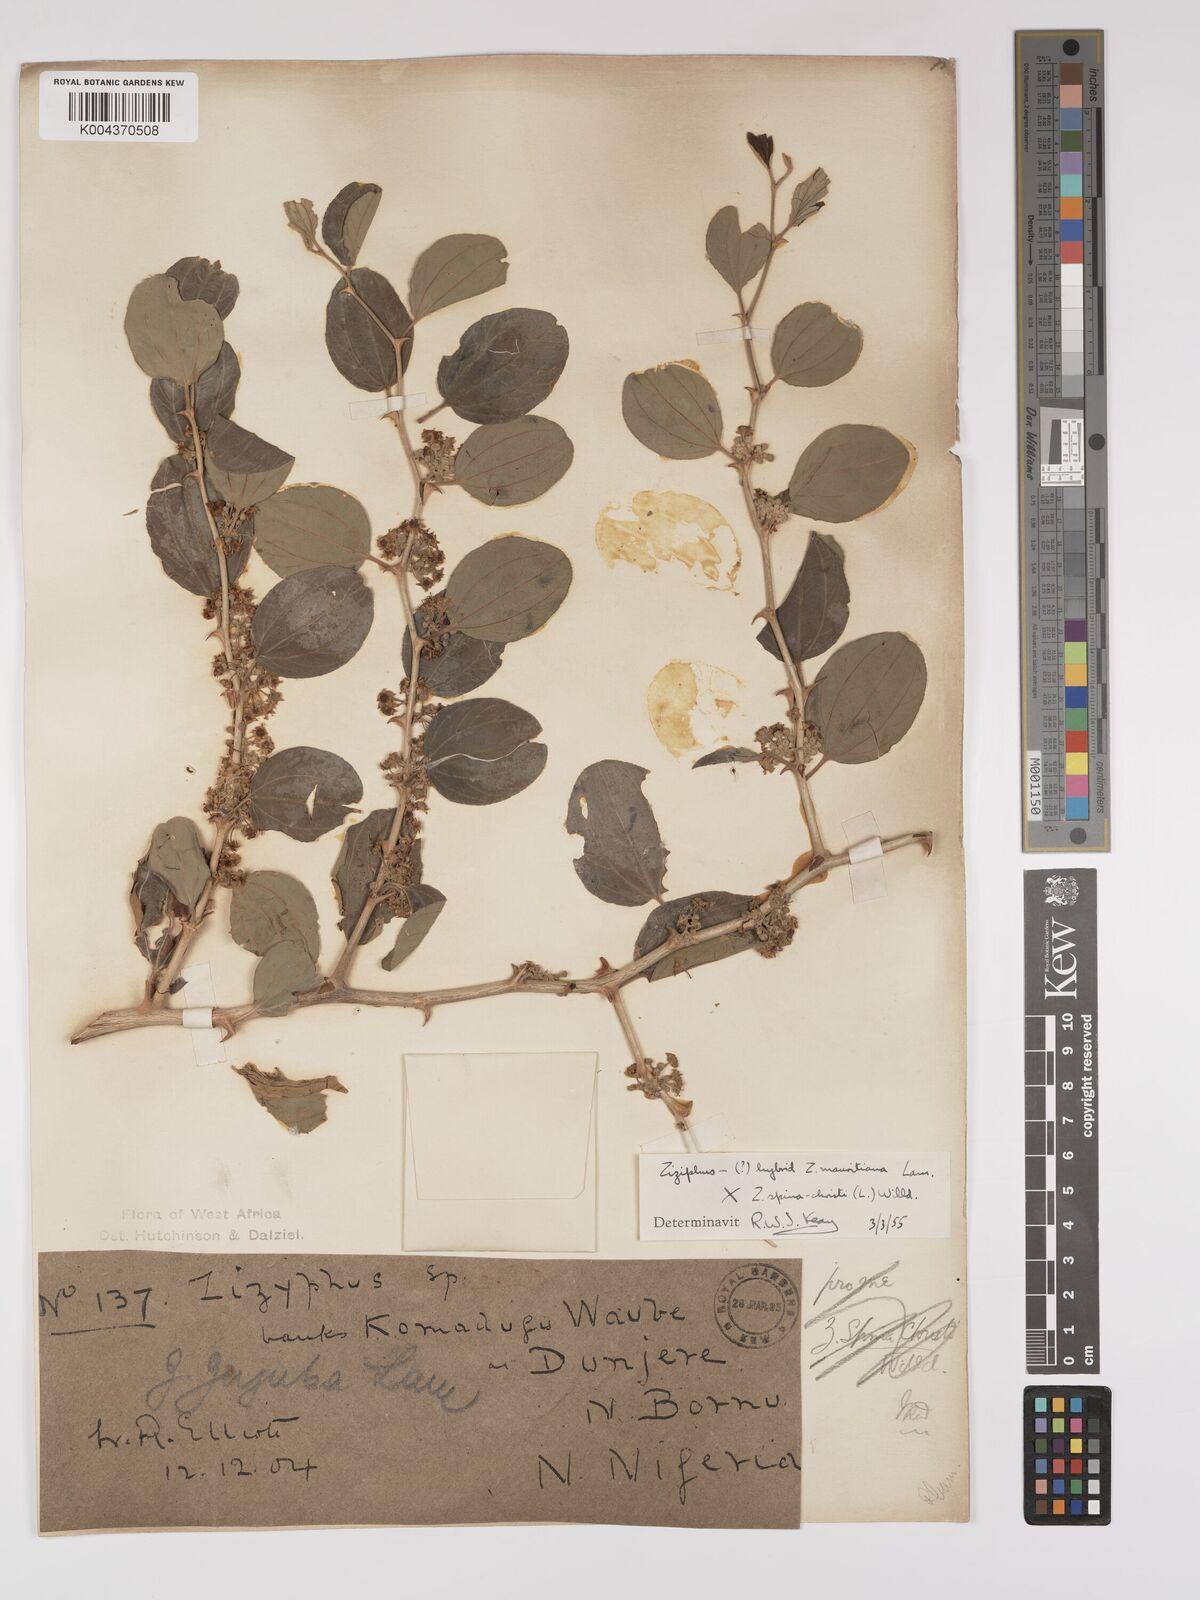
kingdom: Plantae
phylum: Tracheophyta
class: Magnoliopsida
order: Rosales
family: Rhamnaceae
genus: Ziziphus
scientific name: Ziziphus mauritiana
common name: Indian jujube
